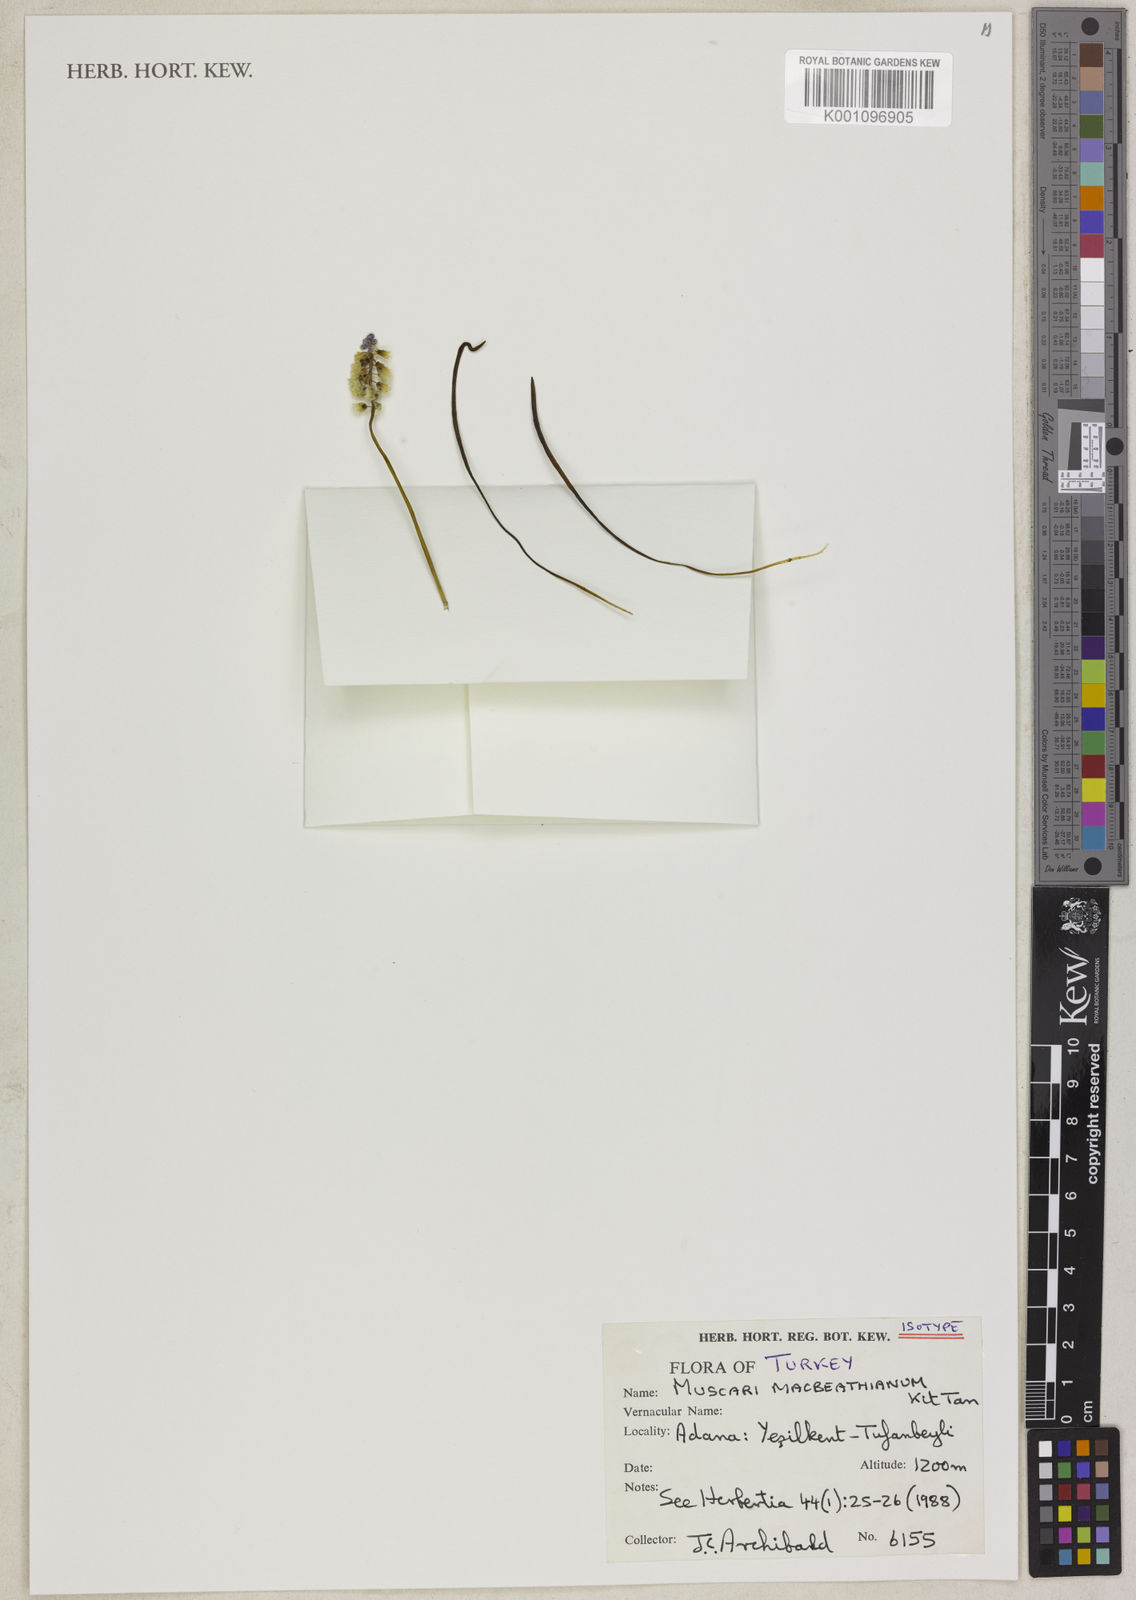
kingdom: Plantae
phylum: Tracheophyta
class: Liliopsida
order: Asparagales
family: Asparagaceae
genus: Muscari
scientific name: Muscari macbeathianum
